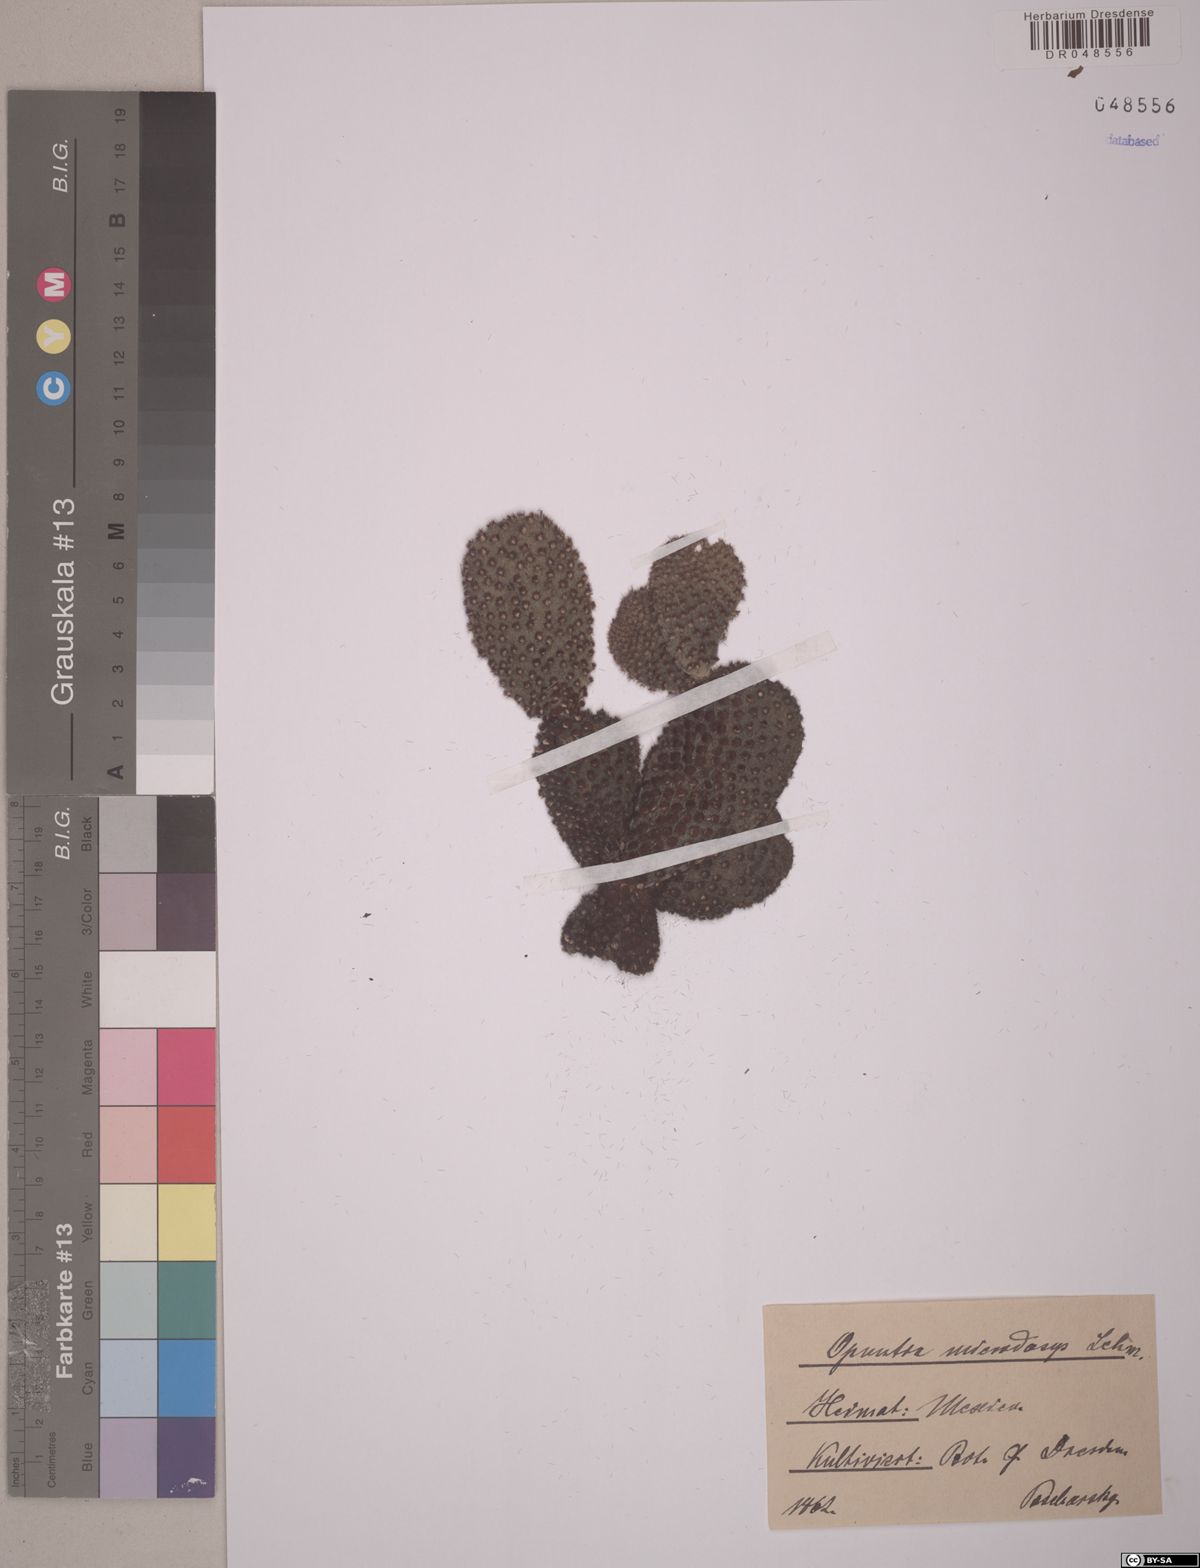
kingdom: Plantae
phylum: Tracheophyta
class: Magnoliopsida
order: Caryophyllales
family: Cactaceae
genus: Opuntia
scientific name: Opuntia microdasys
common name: Angel's-wings
